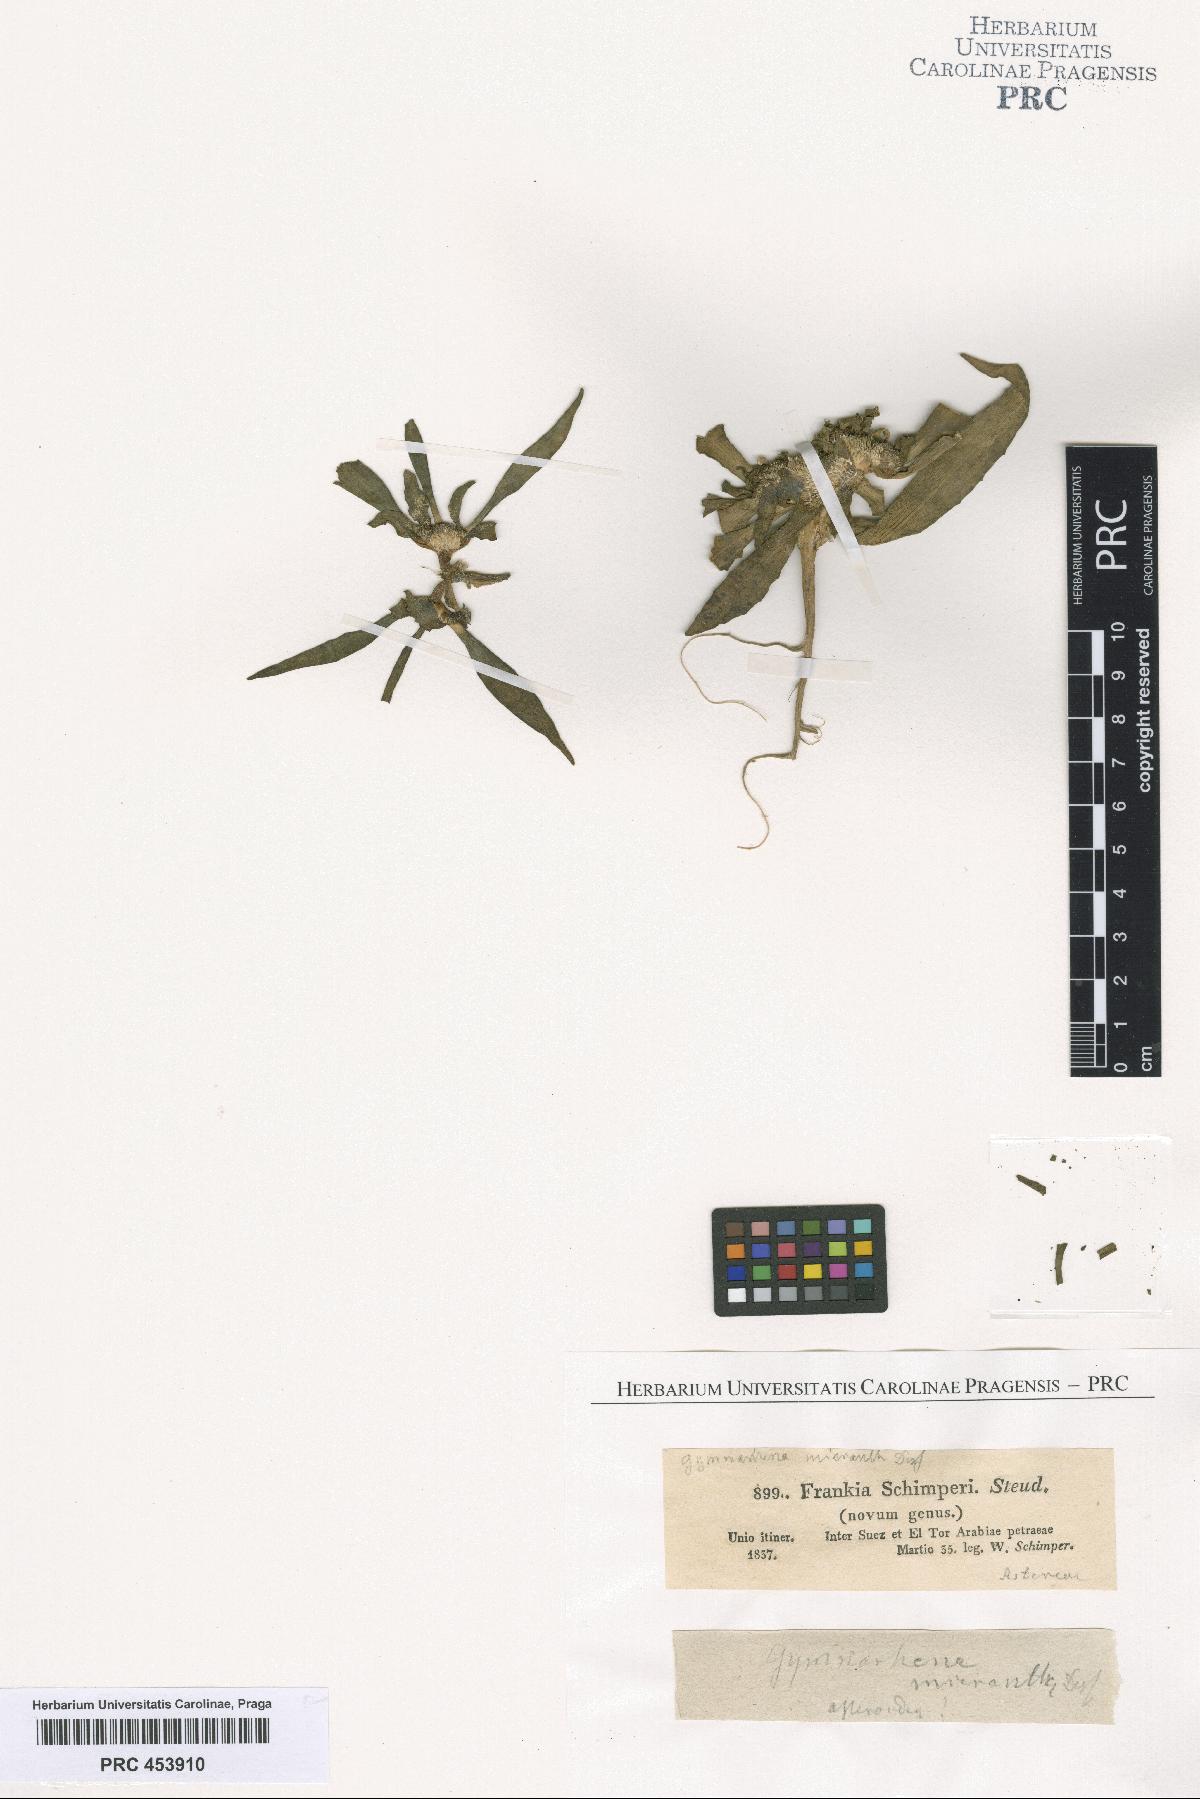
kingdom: Plantae
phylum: Tracheophyta
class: Magnoliopsida
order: Asterales
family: Asteraceae
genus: Gymnarrhena
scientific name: Gymnarrhena micrantha
